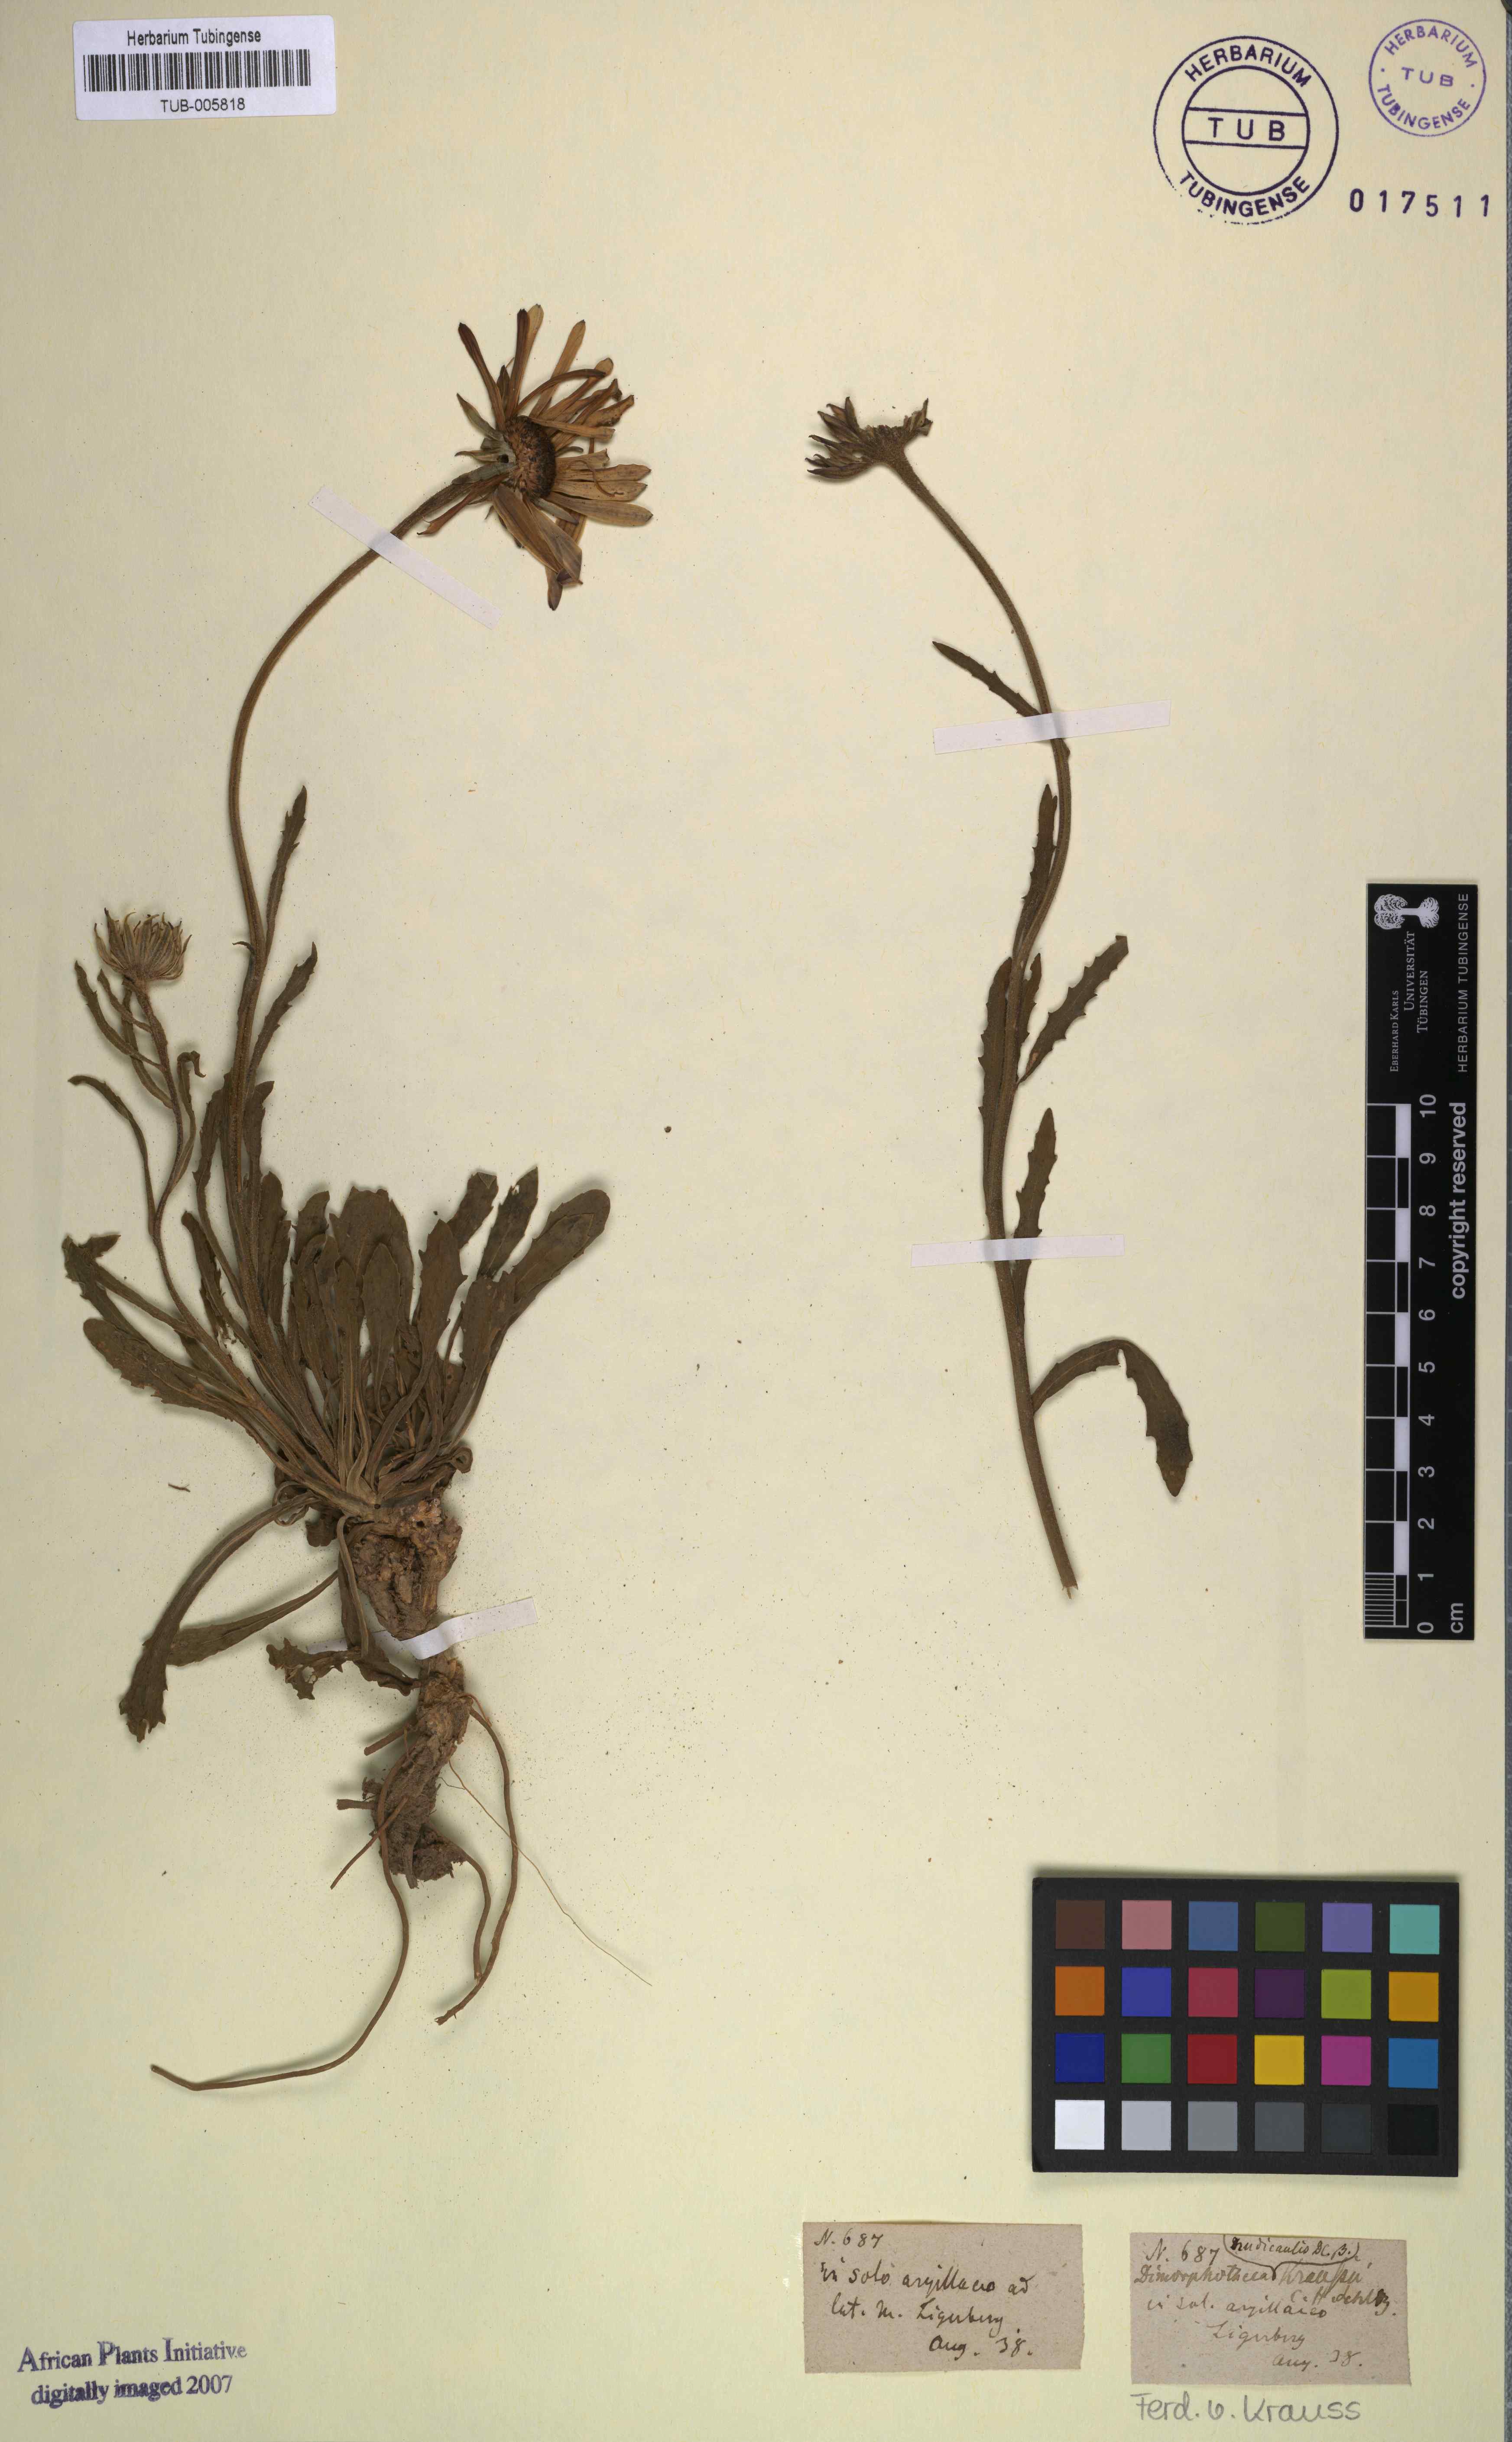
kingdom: Plantae
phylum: Tracheophyta
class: Magnoliopsida
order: Asterales
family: Asteraceae
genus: Dimorphotheca
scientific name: Dimorphotheca nudicaulis
